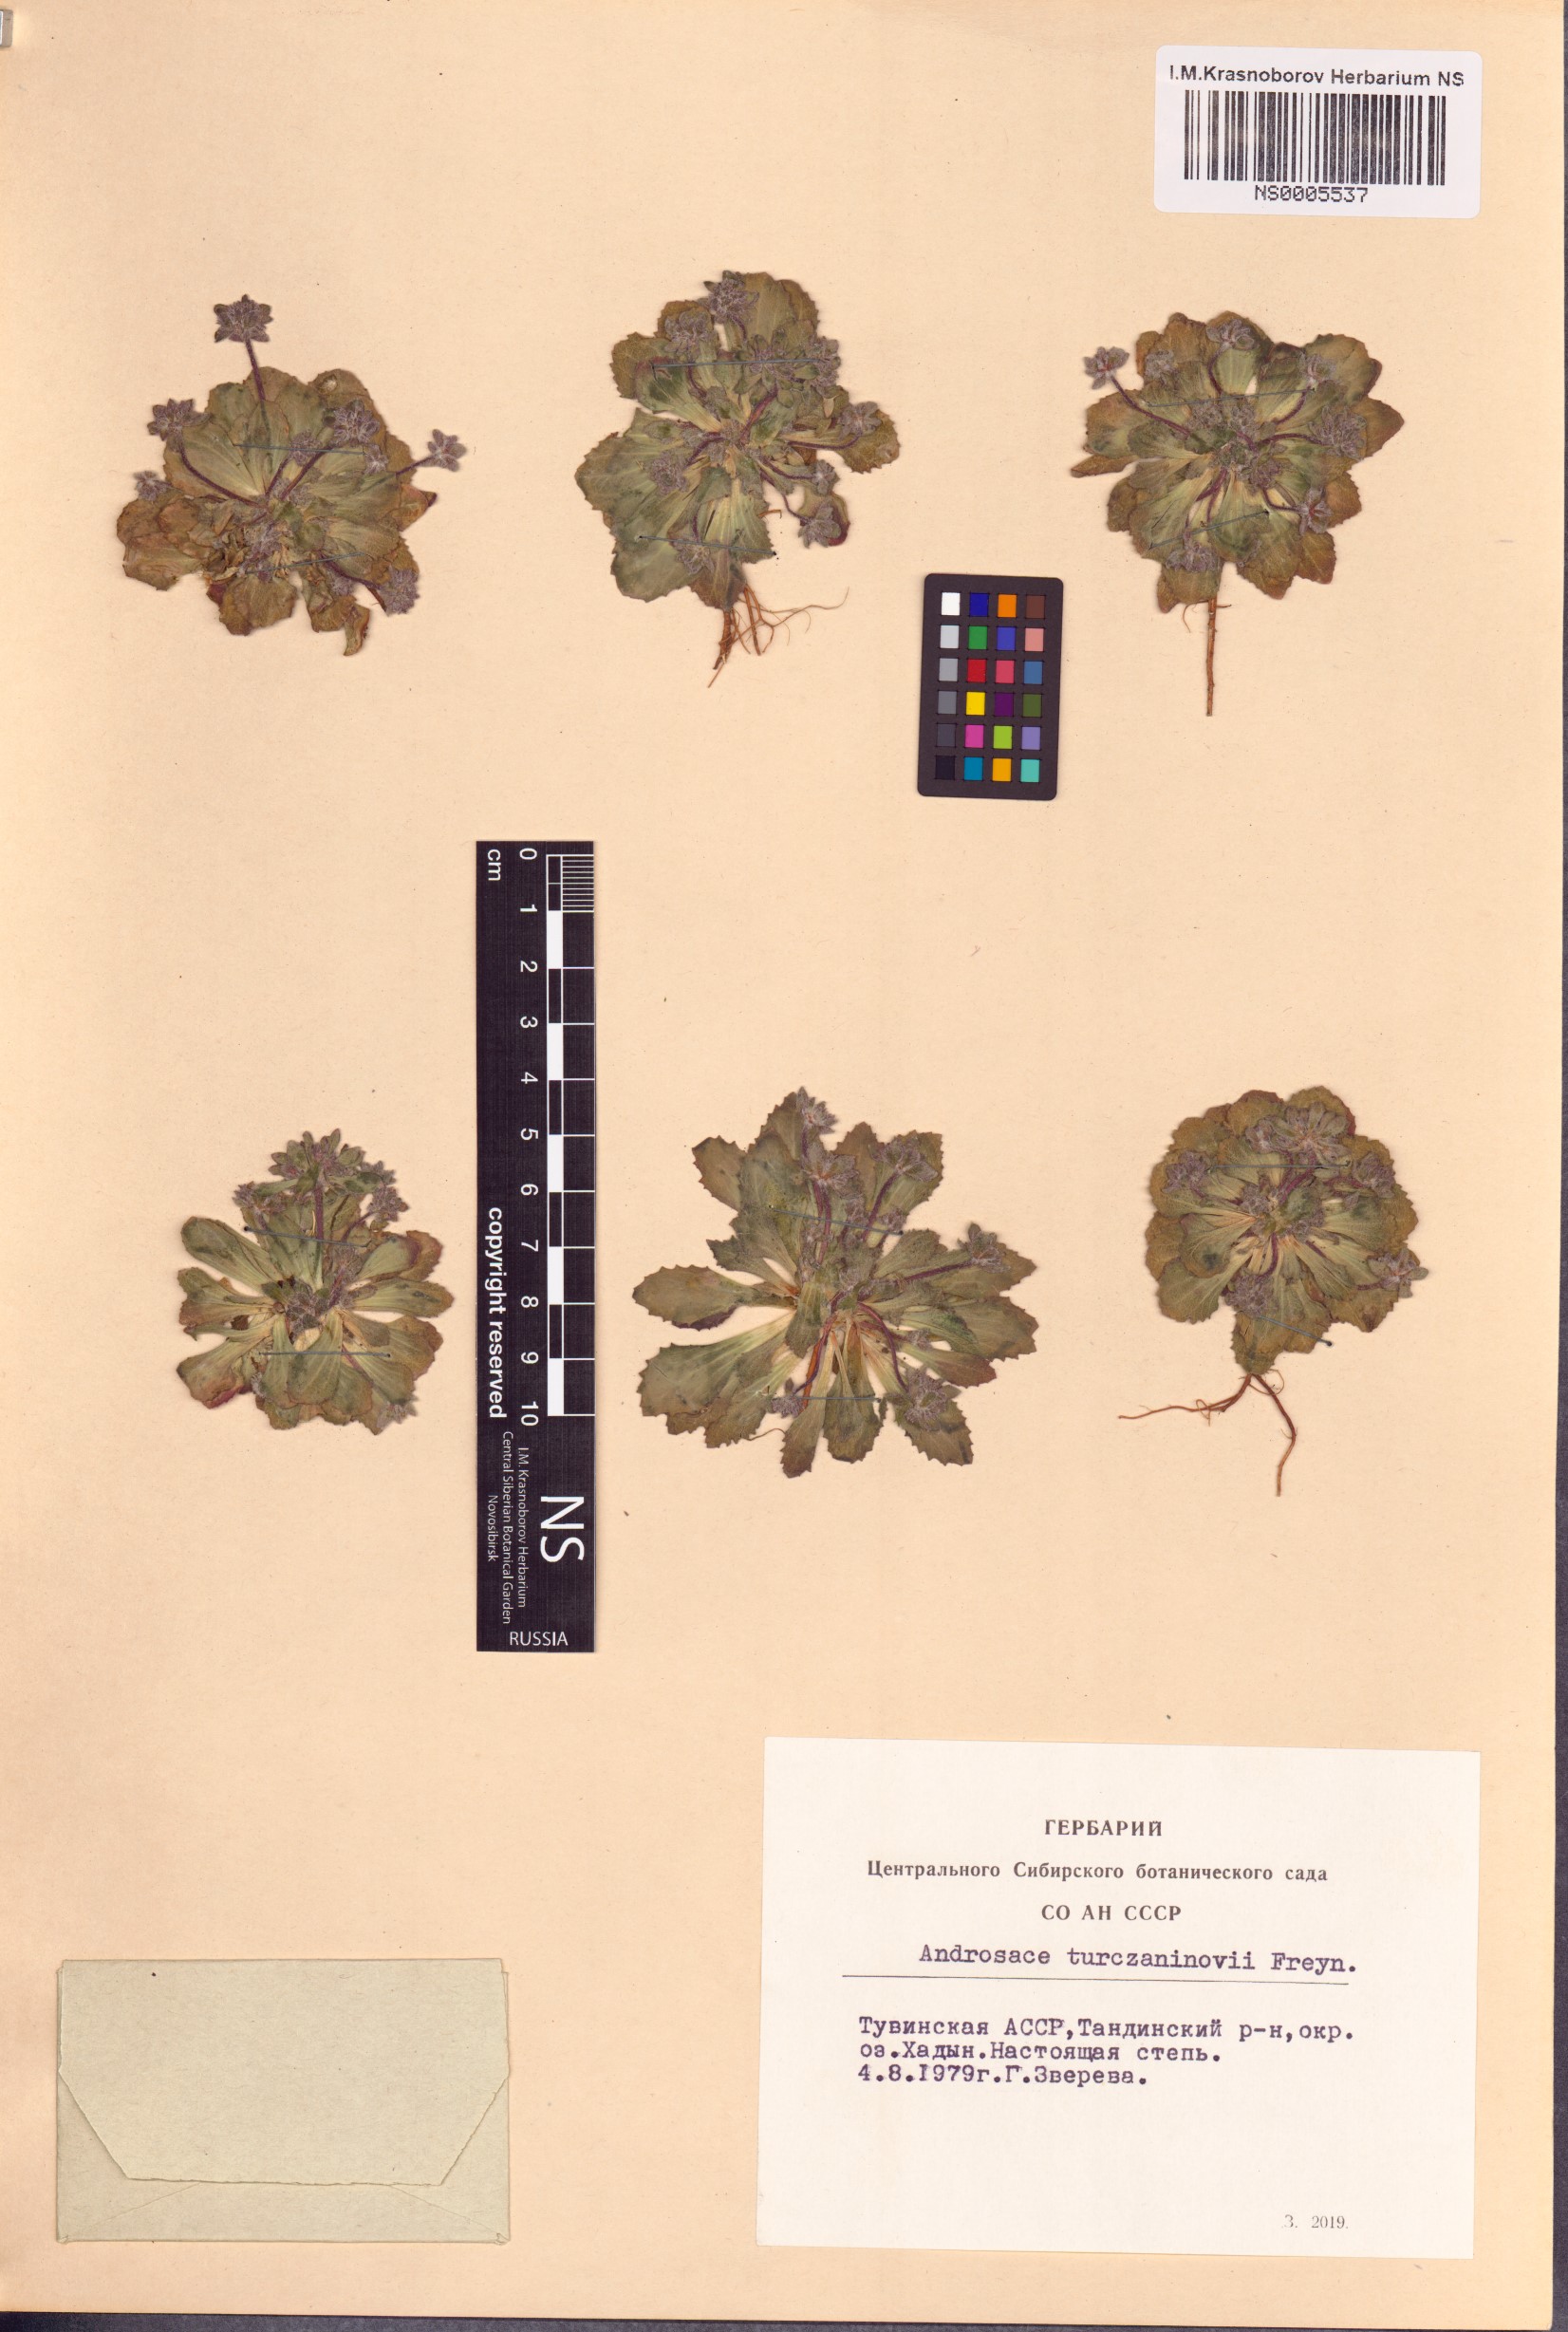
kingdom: Plantae
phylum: Tracheophyta
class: Magnoliopsida
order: Ericales
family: Primulaceae
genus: Androsace
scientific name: Androsace maxima
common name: Annual androsace
